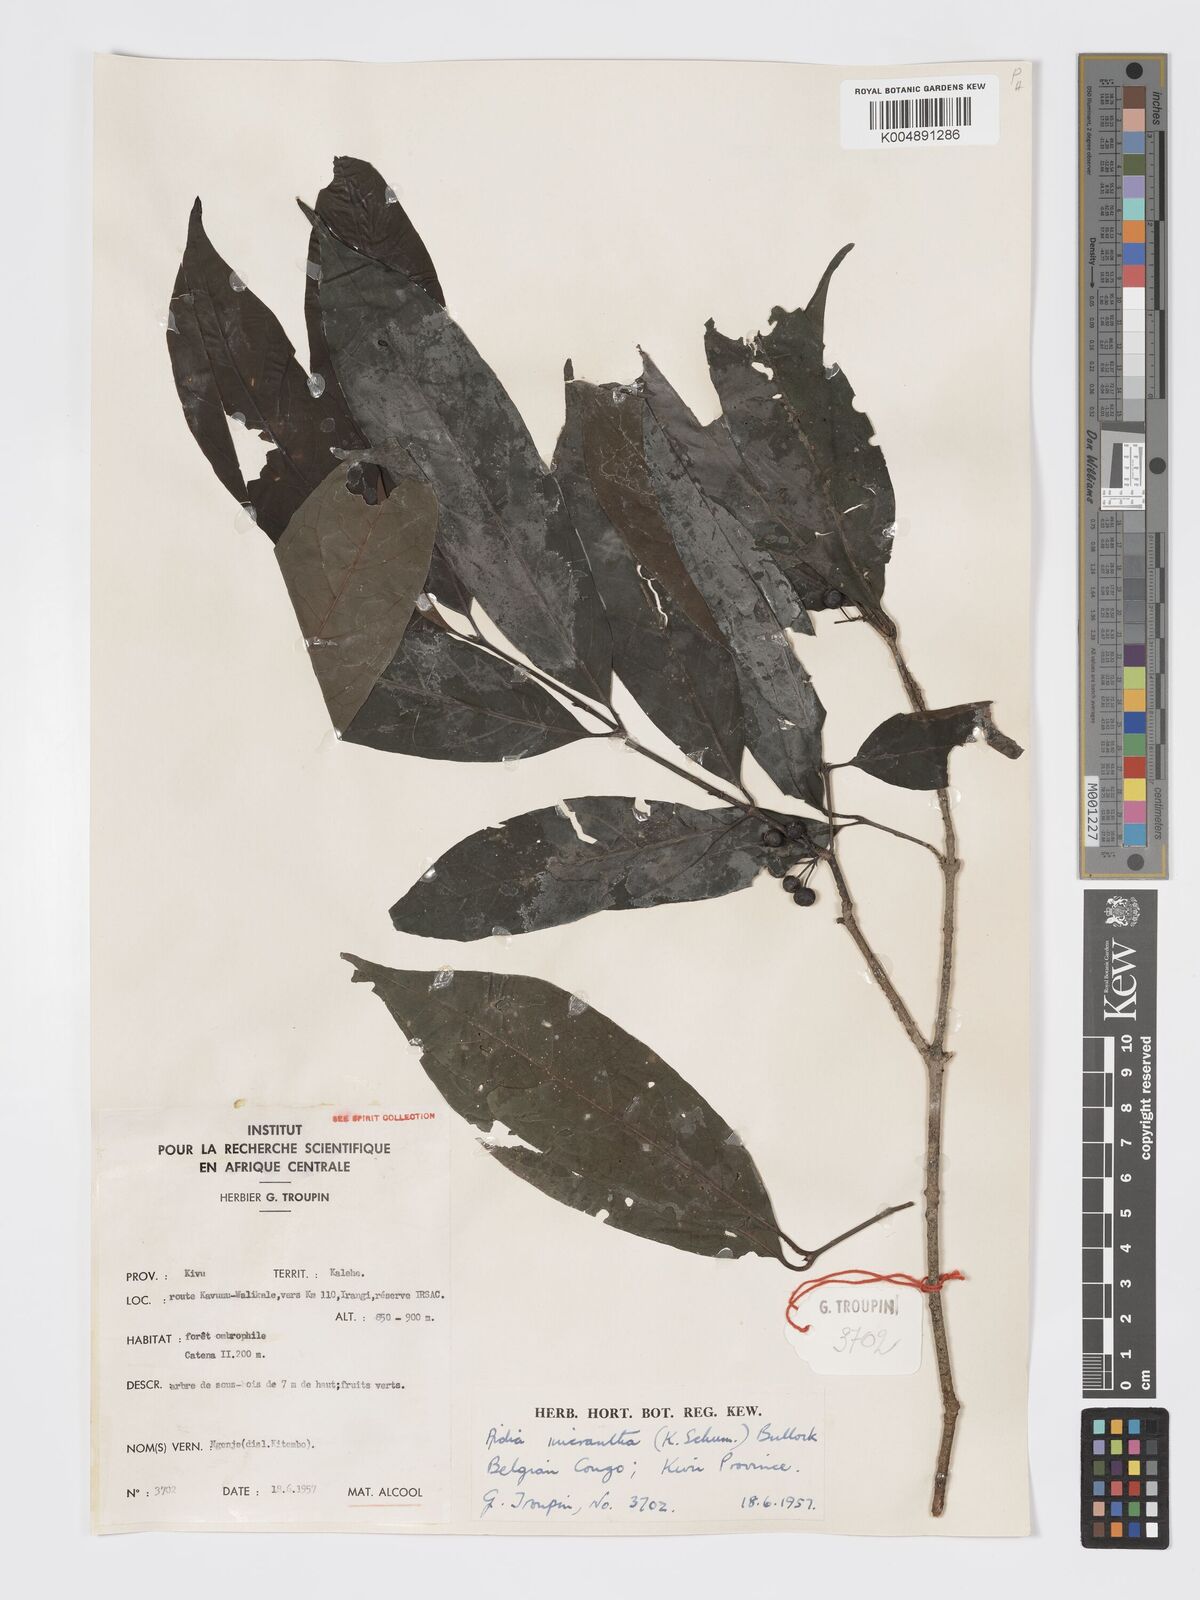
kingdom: Plantae
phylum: Tracheophyta
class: Magnoliopsida
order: Gentianales
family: Rubiaceae
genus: Aidia
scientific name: Aidia micrantha
